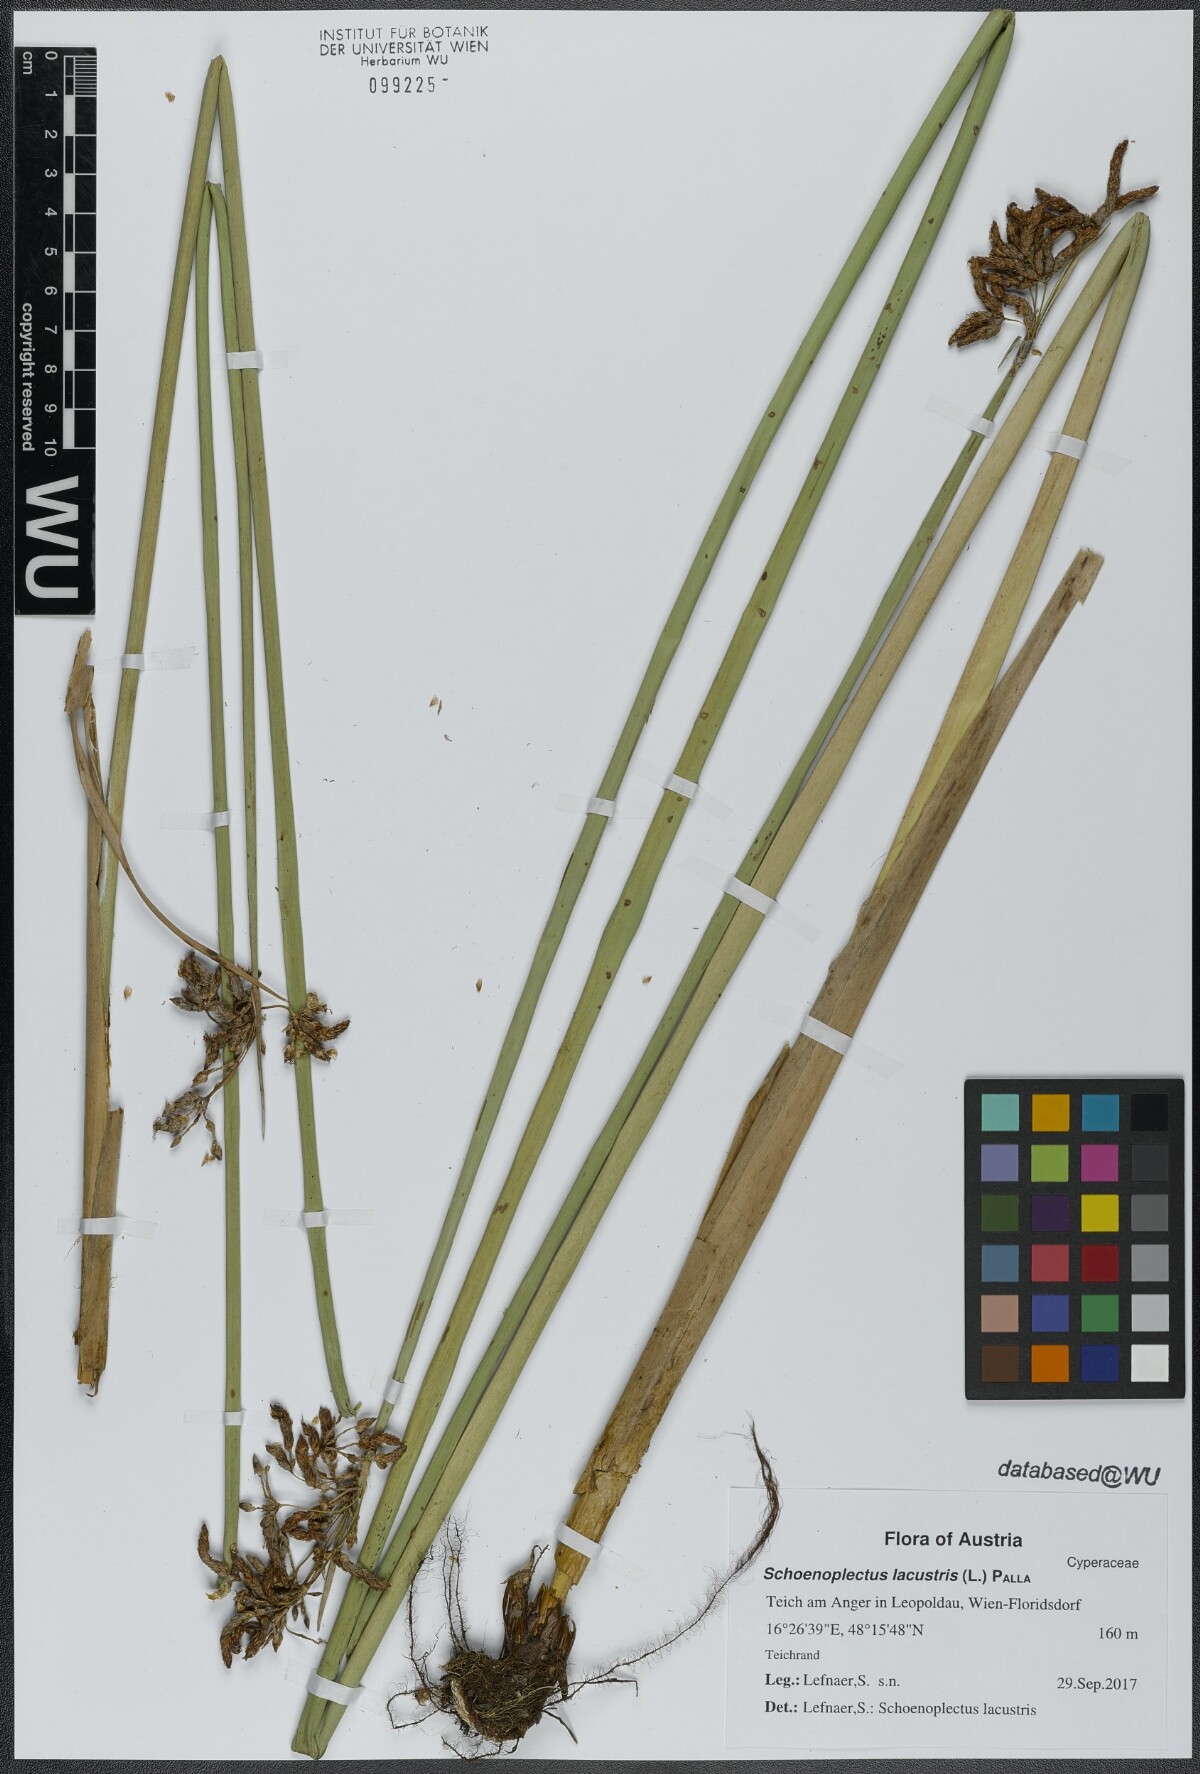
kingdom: Plantae
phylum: Tracheophyta
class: Liliopsida
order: Poales
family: Cyperaceae
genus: Schoenoplectus
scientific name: Schoenoplectus lacustris
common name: Common club-rush
